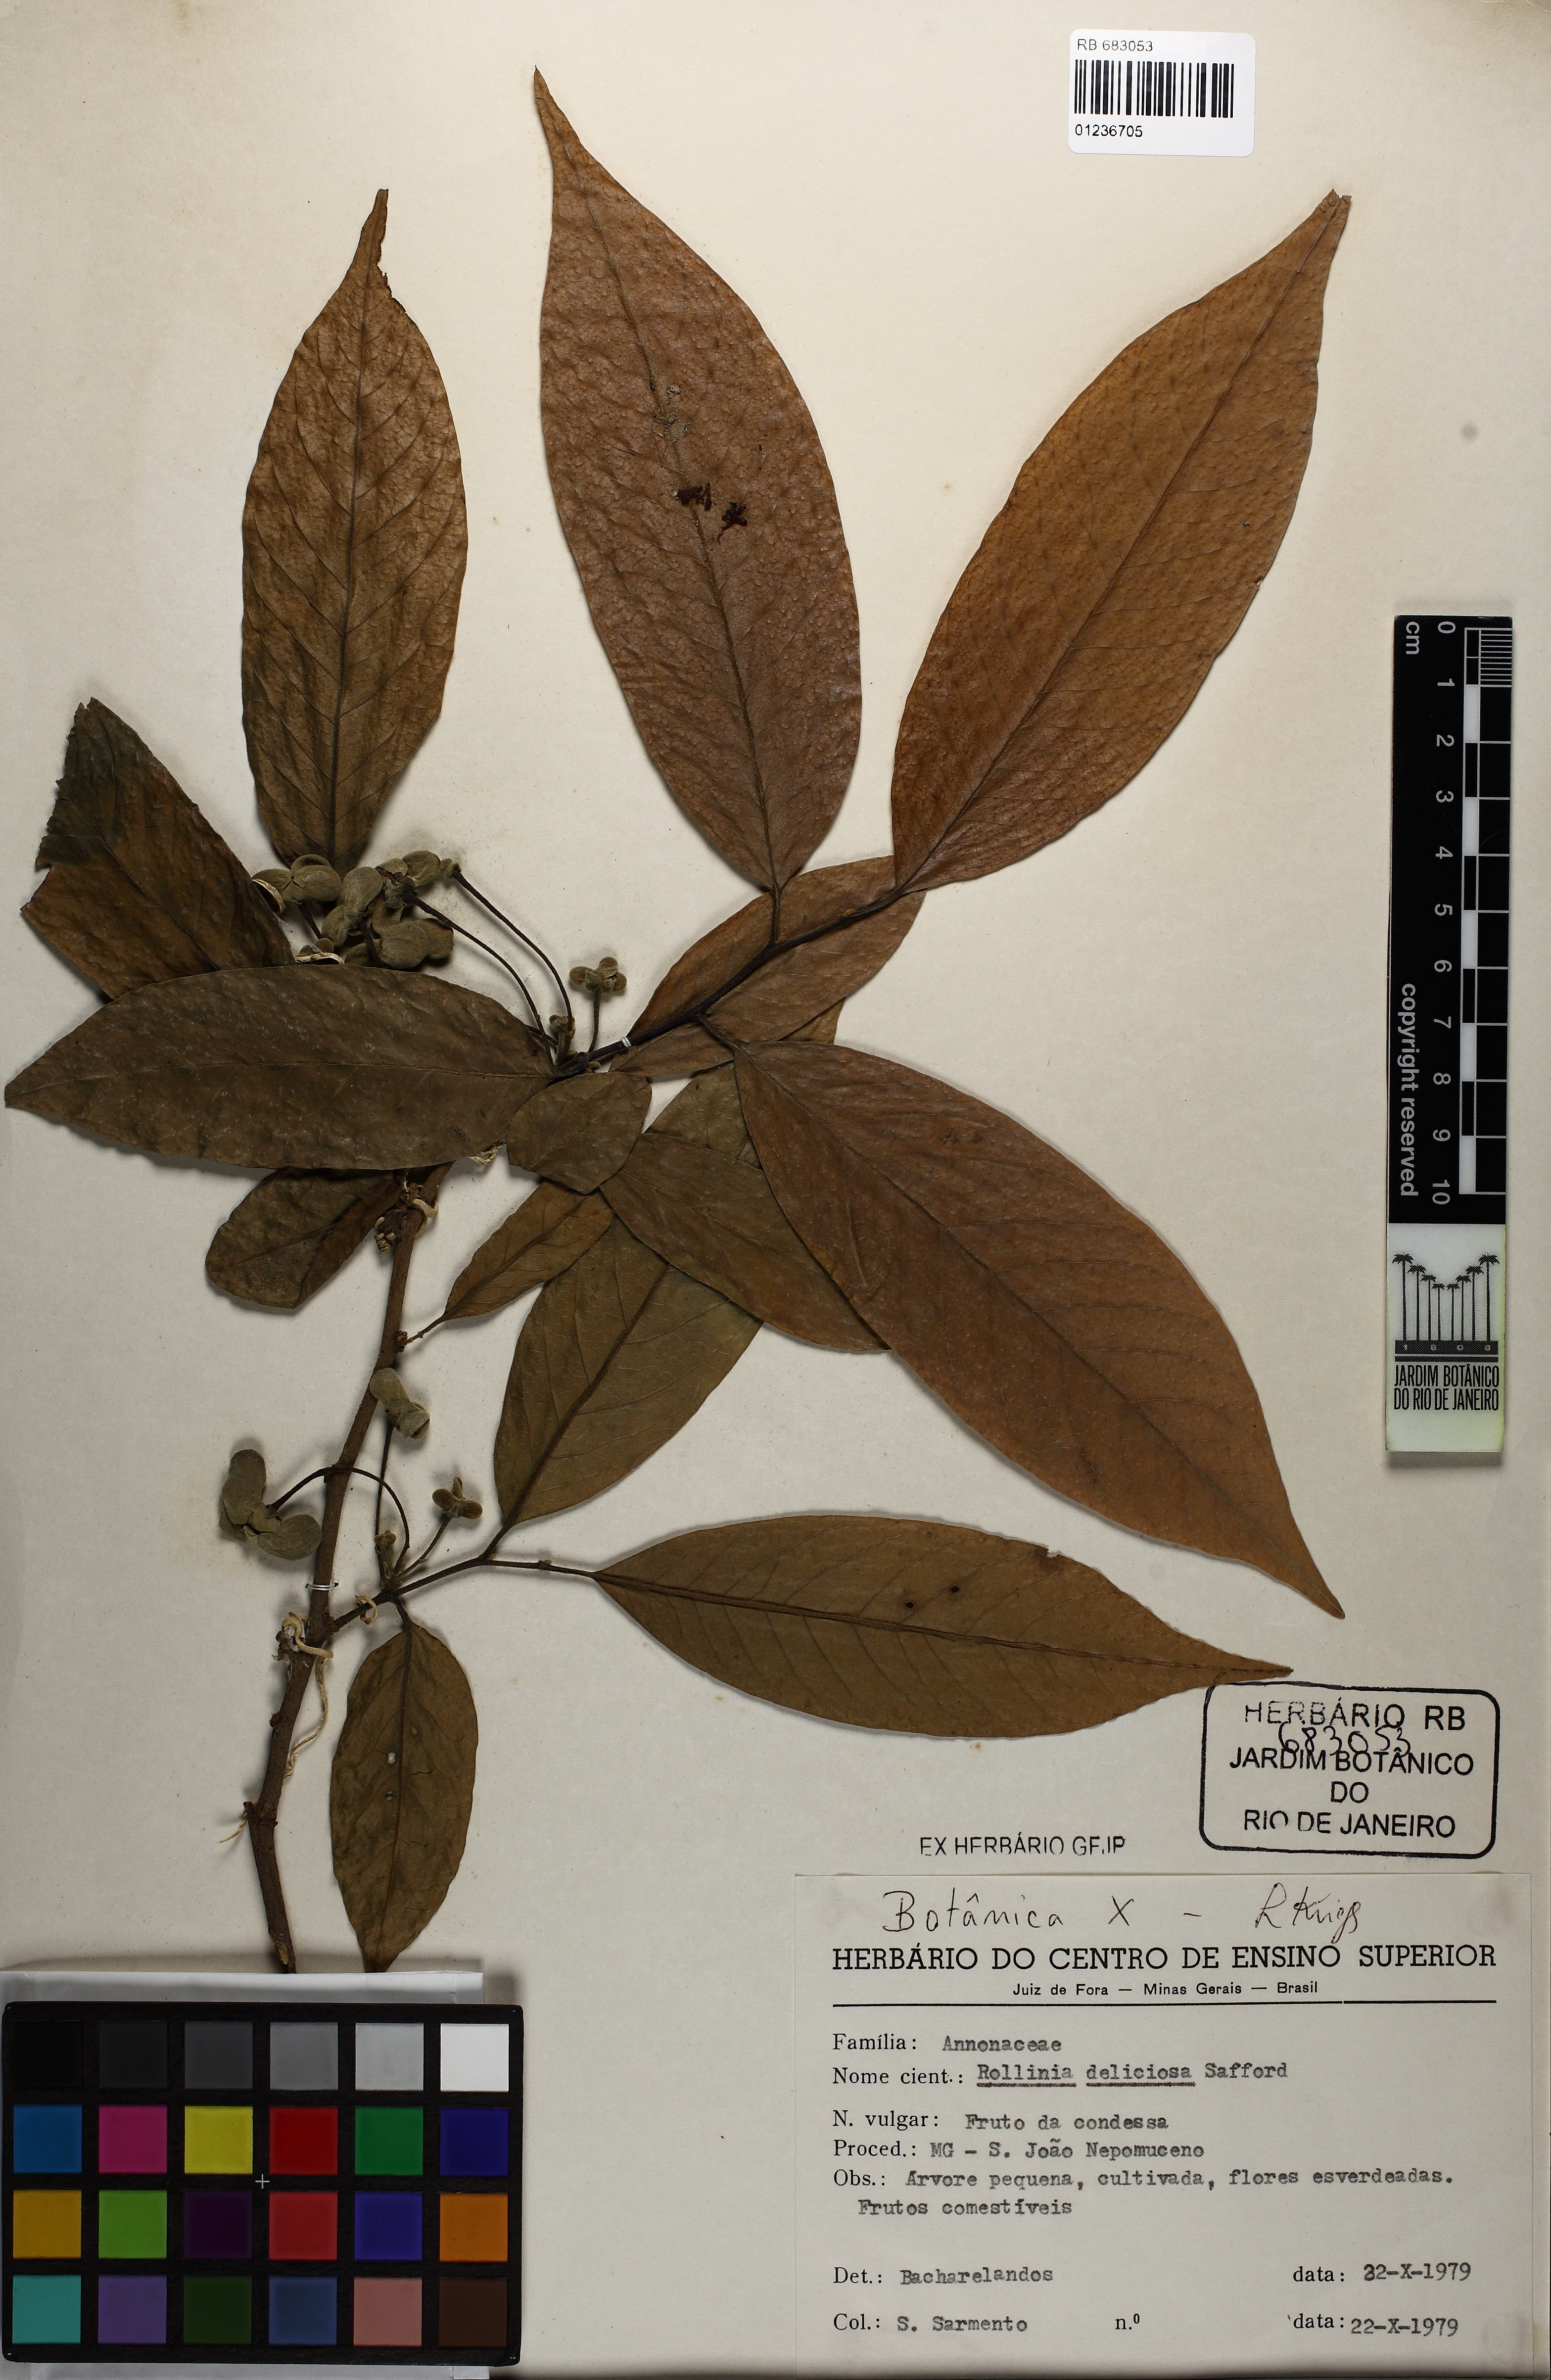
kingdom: Plantae
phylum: Tracheophyta
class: Magnoliopsida
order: Magnoliales
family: Annonaceae
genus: Annona
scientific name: Annona mucosa
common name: Sugar apple
